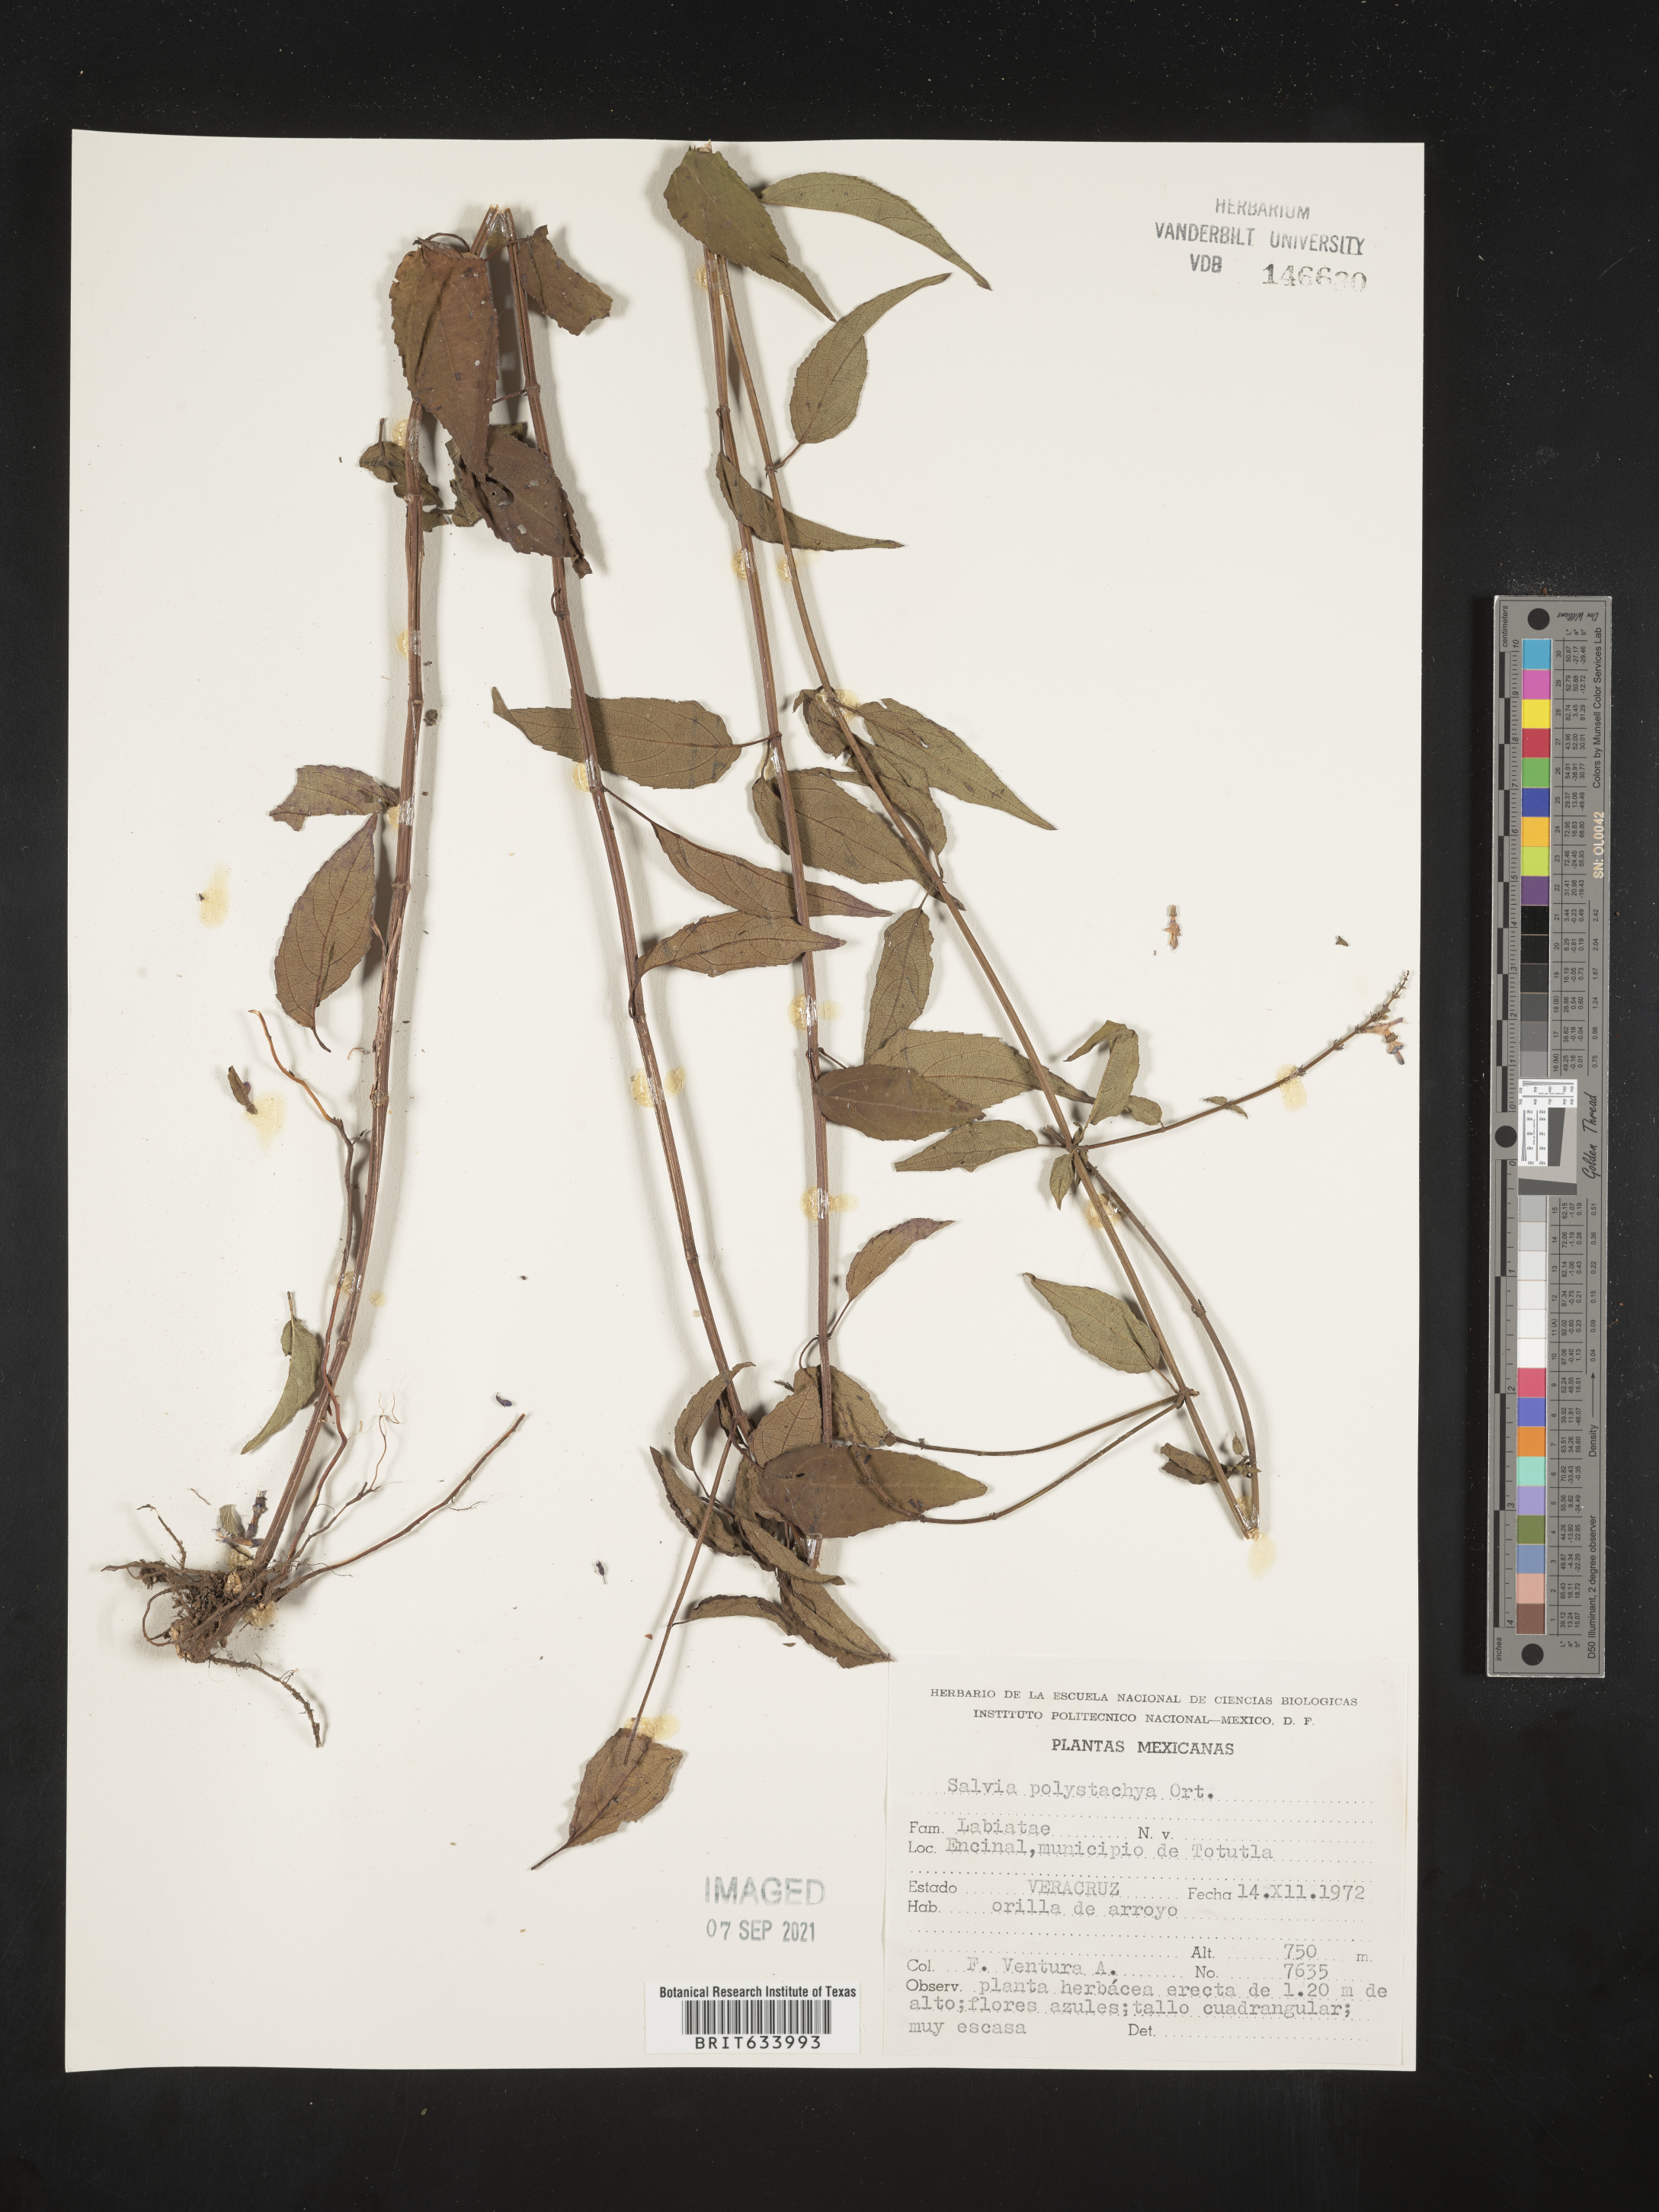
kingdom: Plantae
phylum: Tracheophyta
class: Magnoliopsida
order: Lamiales
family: Lamiaceae
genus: Salvia
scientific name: Salvia
